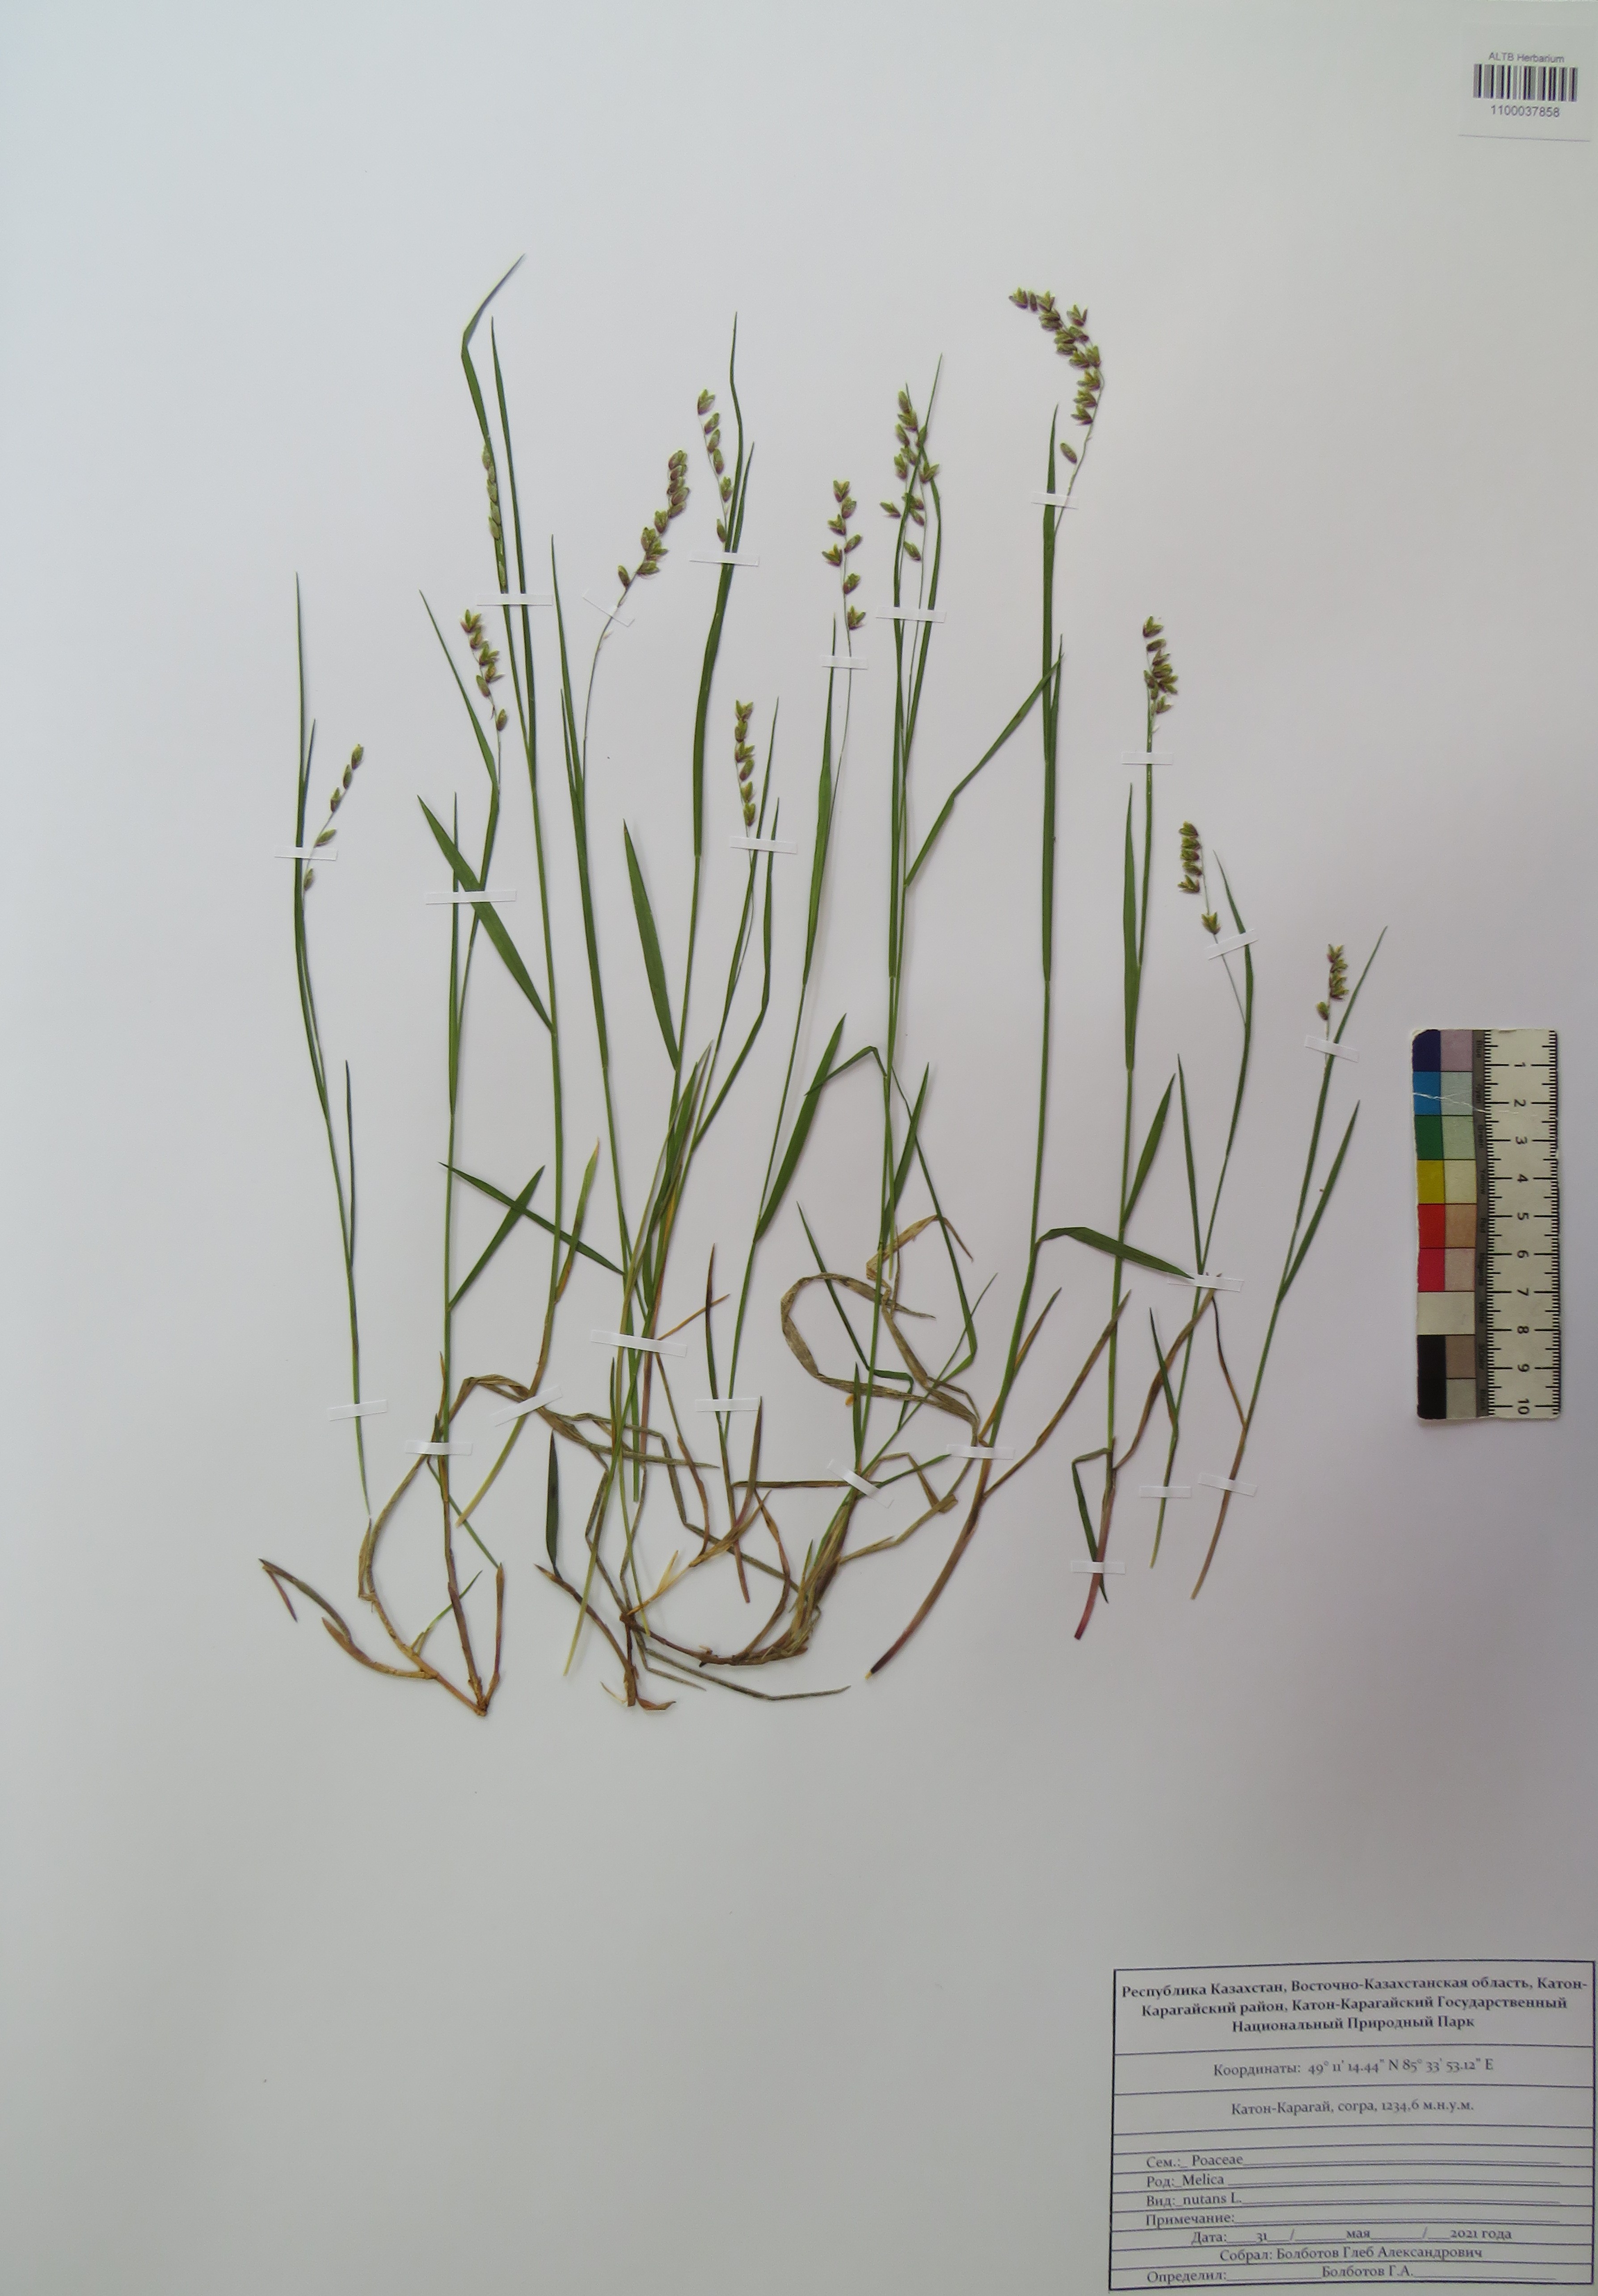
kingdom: Plantae
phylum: Tracheophyta
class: Liliopsida
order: Poales
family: Poaceae
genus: Melica
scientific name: Melica nutans
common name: Mountain melick
